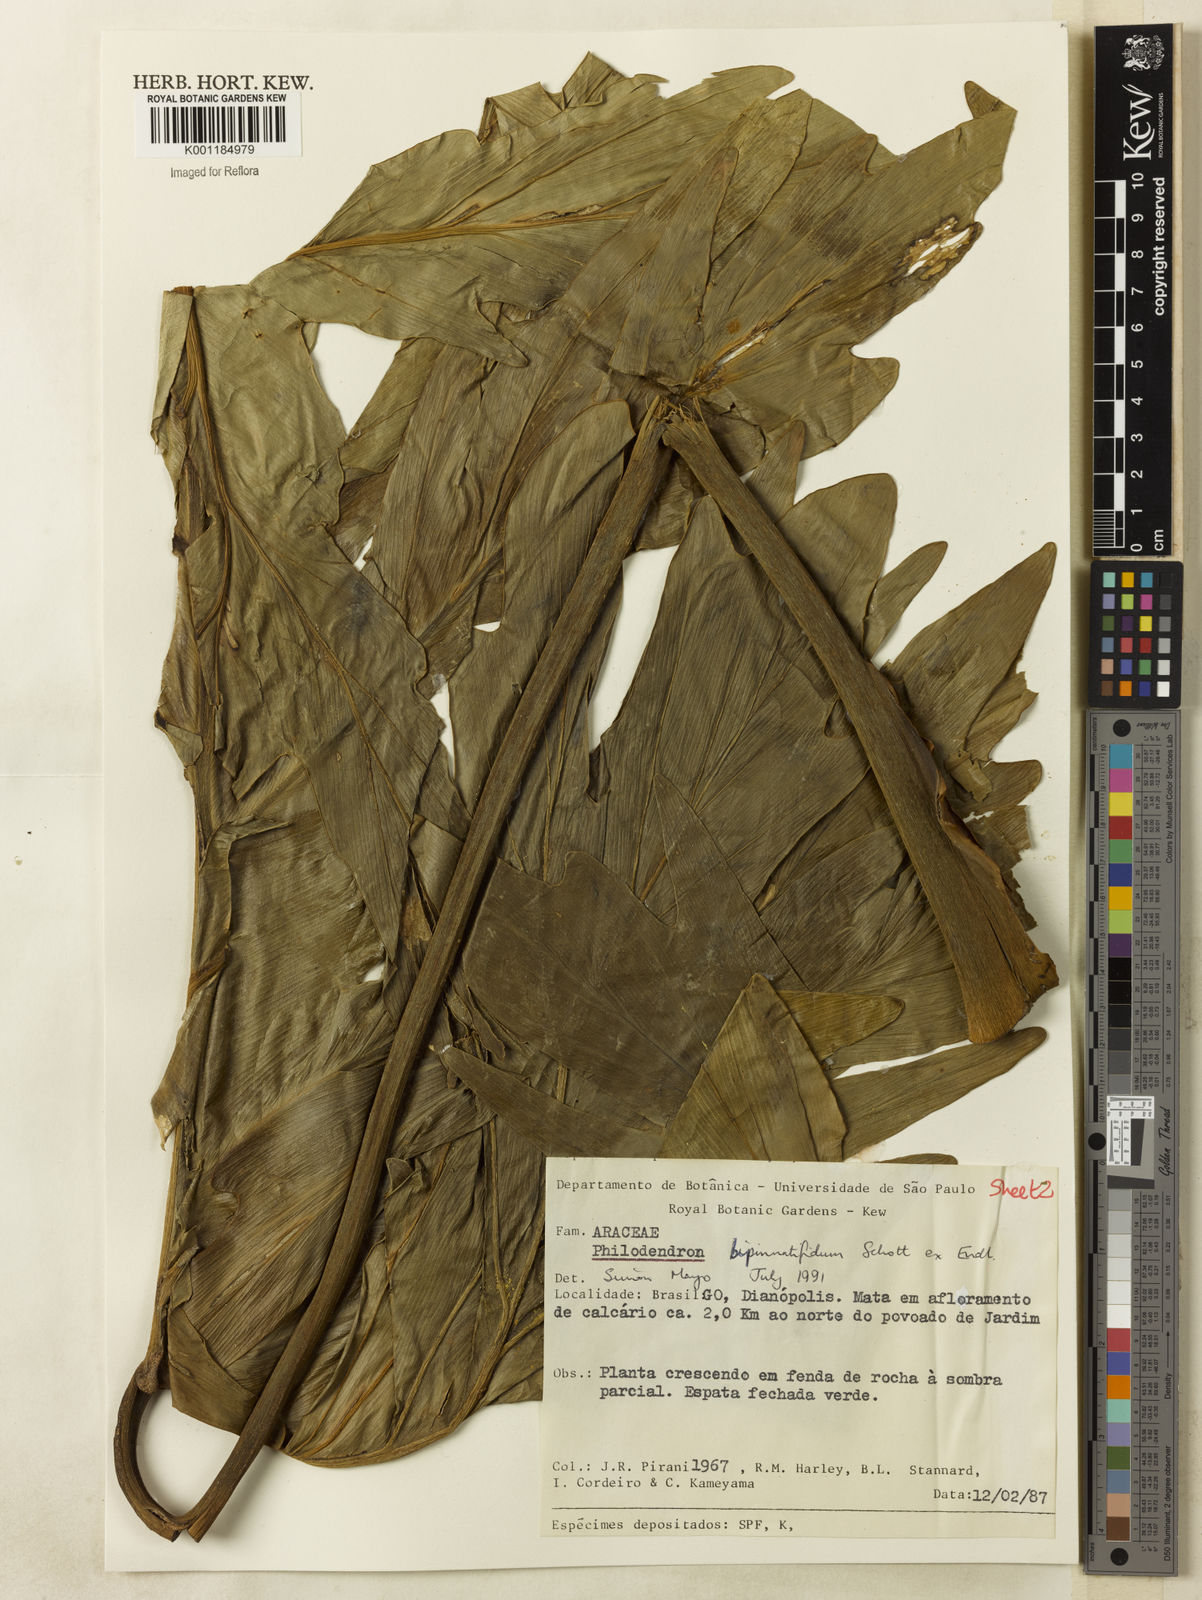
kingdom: Plantae
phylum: Tracheophyta
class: Liliopsida
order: Alismatales
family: Araceae
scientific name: Araceae
